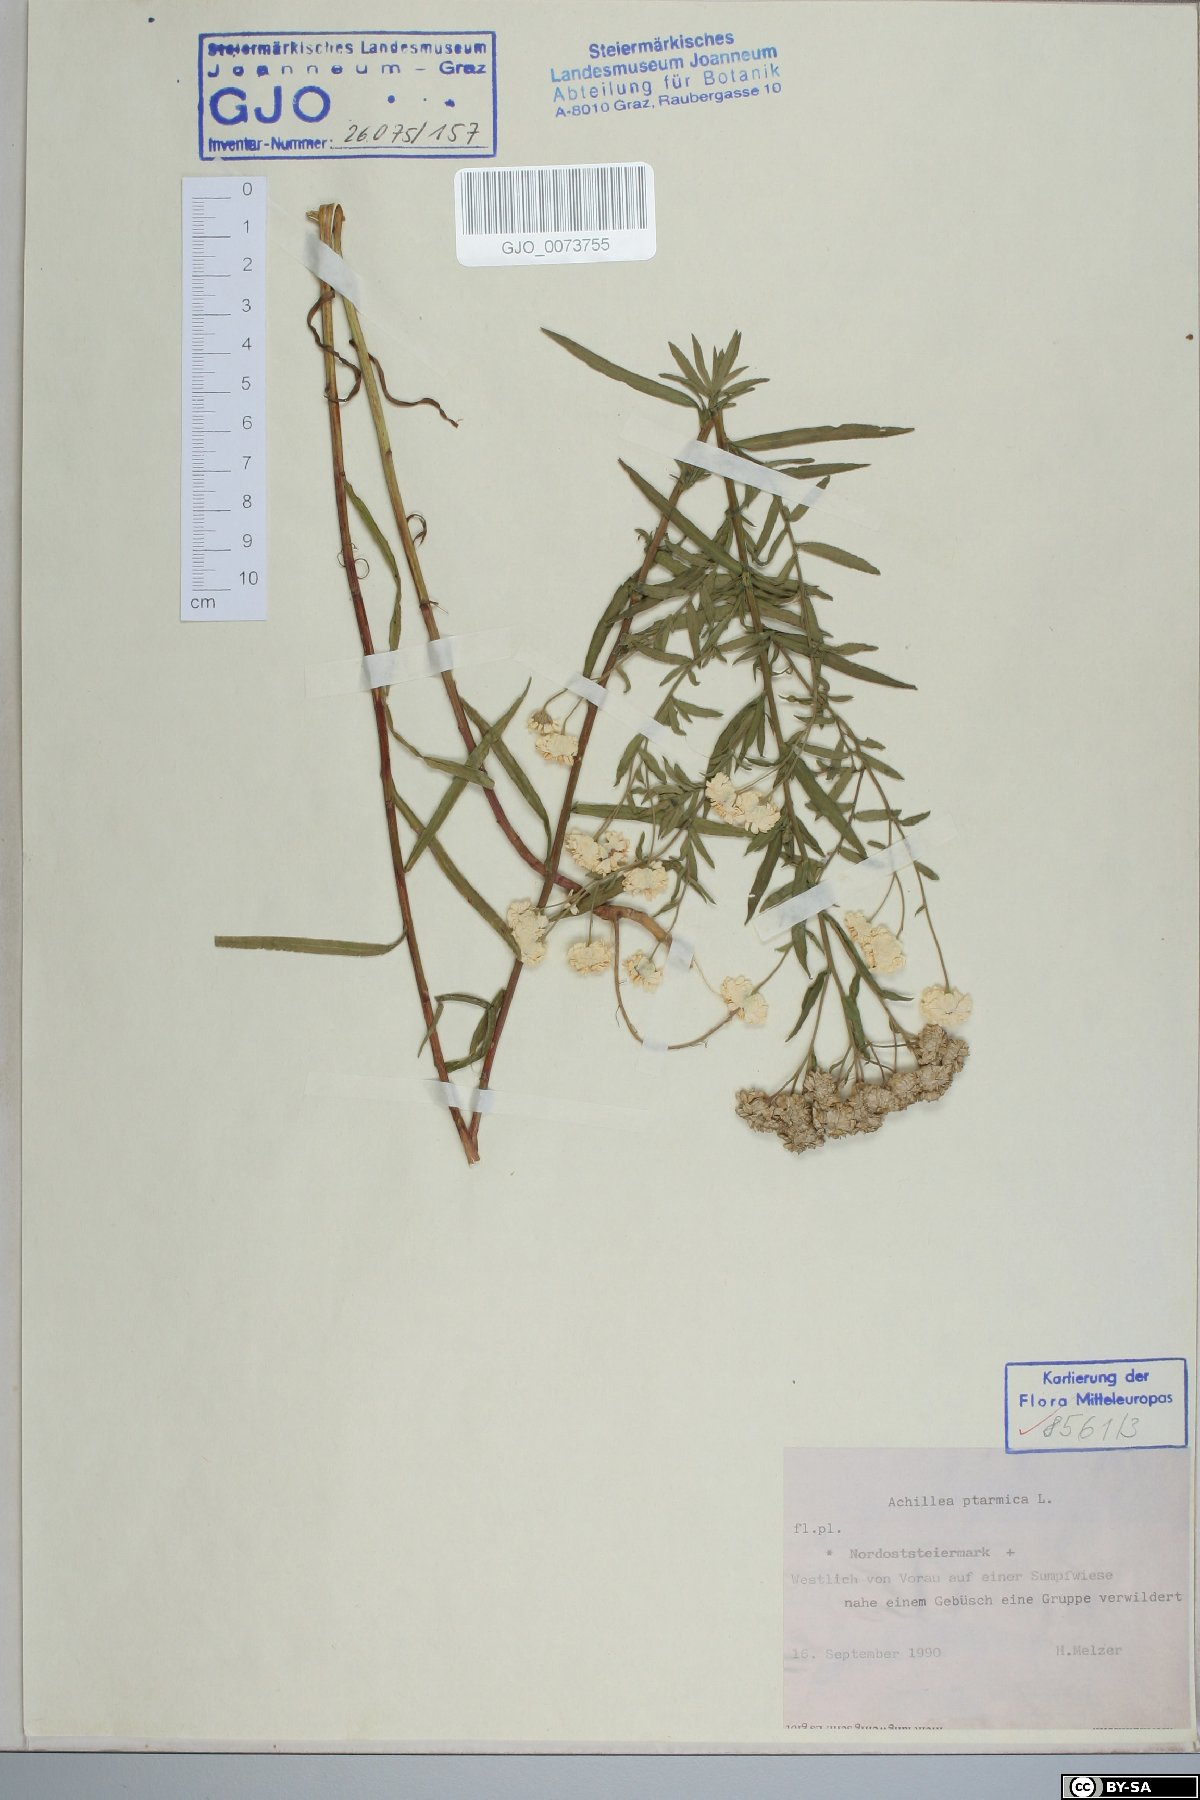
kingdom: Plantae
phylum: Tracheophyta
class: Magnoliopsida
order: Asterales
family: Asteraceae
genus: Achillea
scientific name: Achillea ptarmica
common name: Sneezeweed
